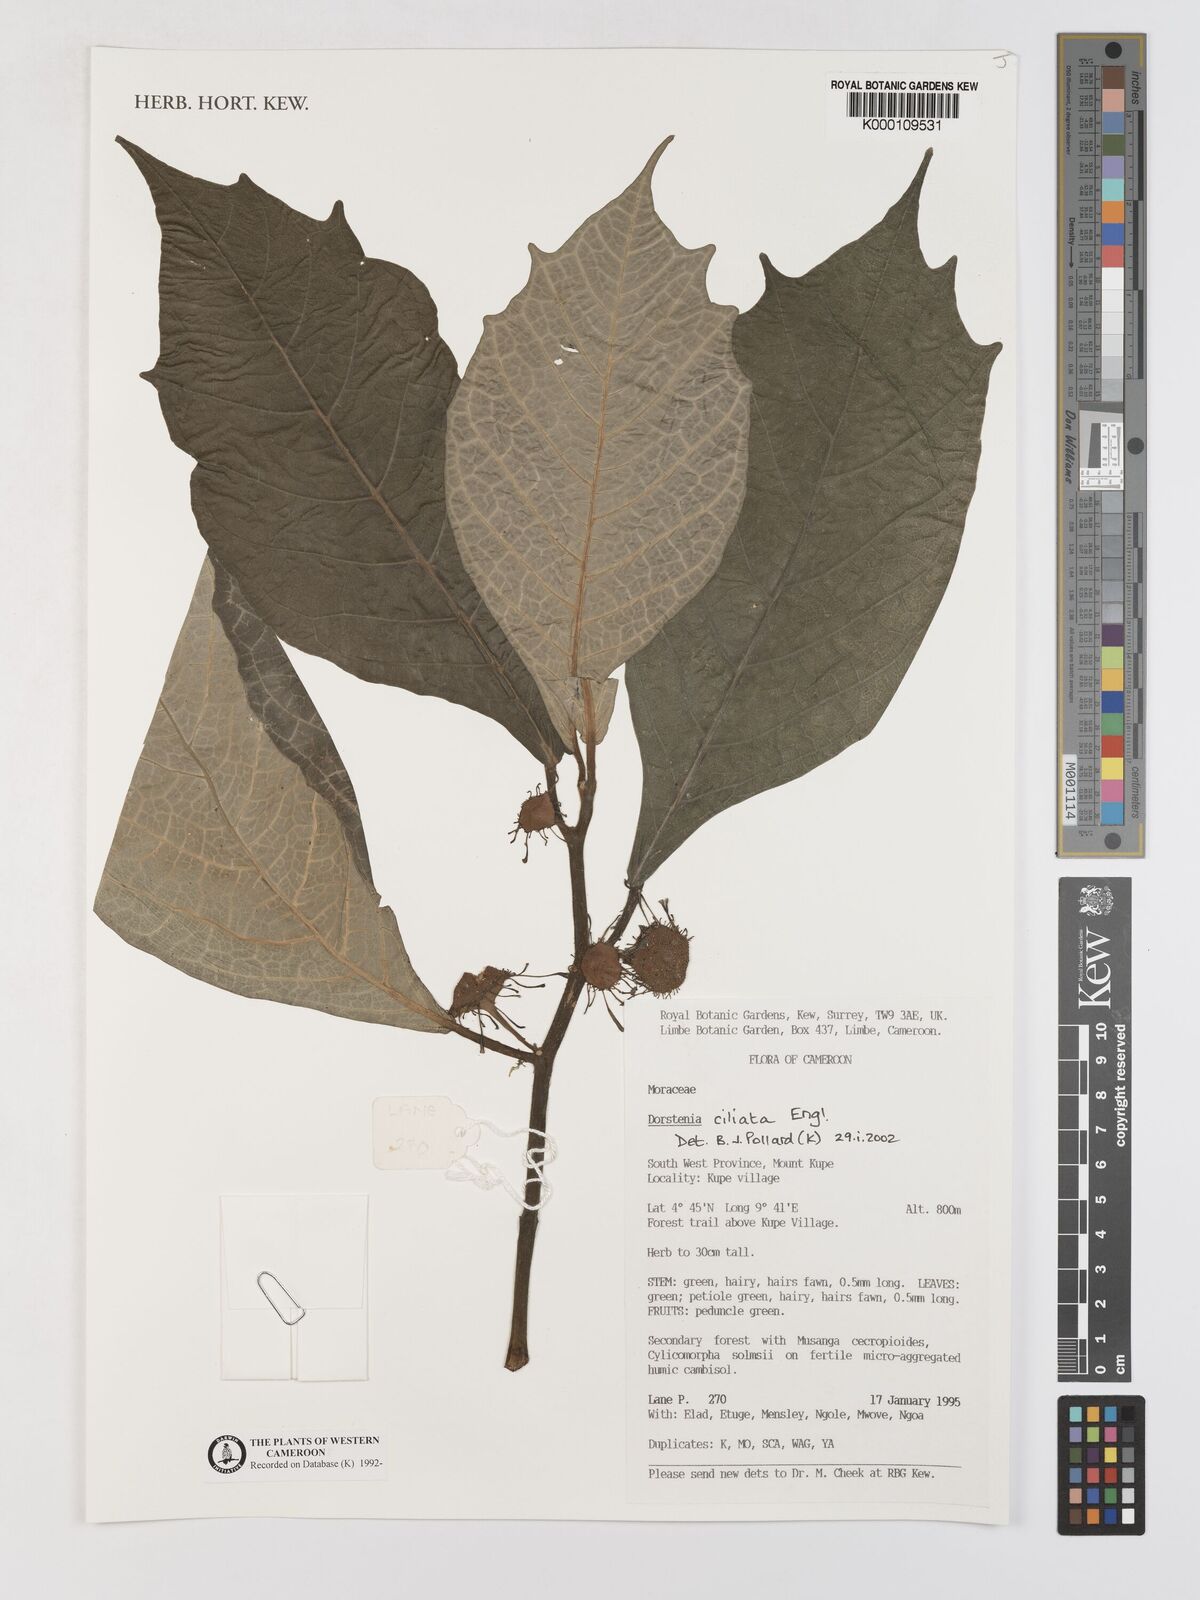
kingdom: Plantae
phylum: Tracheophyta
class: Magnoliopsida
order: Rosales
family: Moraceae
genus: Dorstenia
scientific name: Dorstenia ciliata
